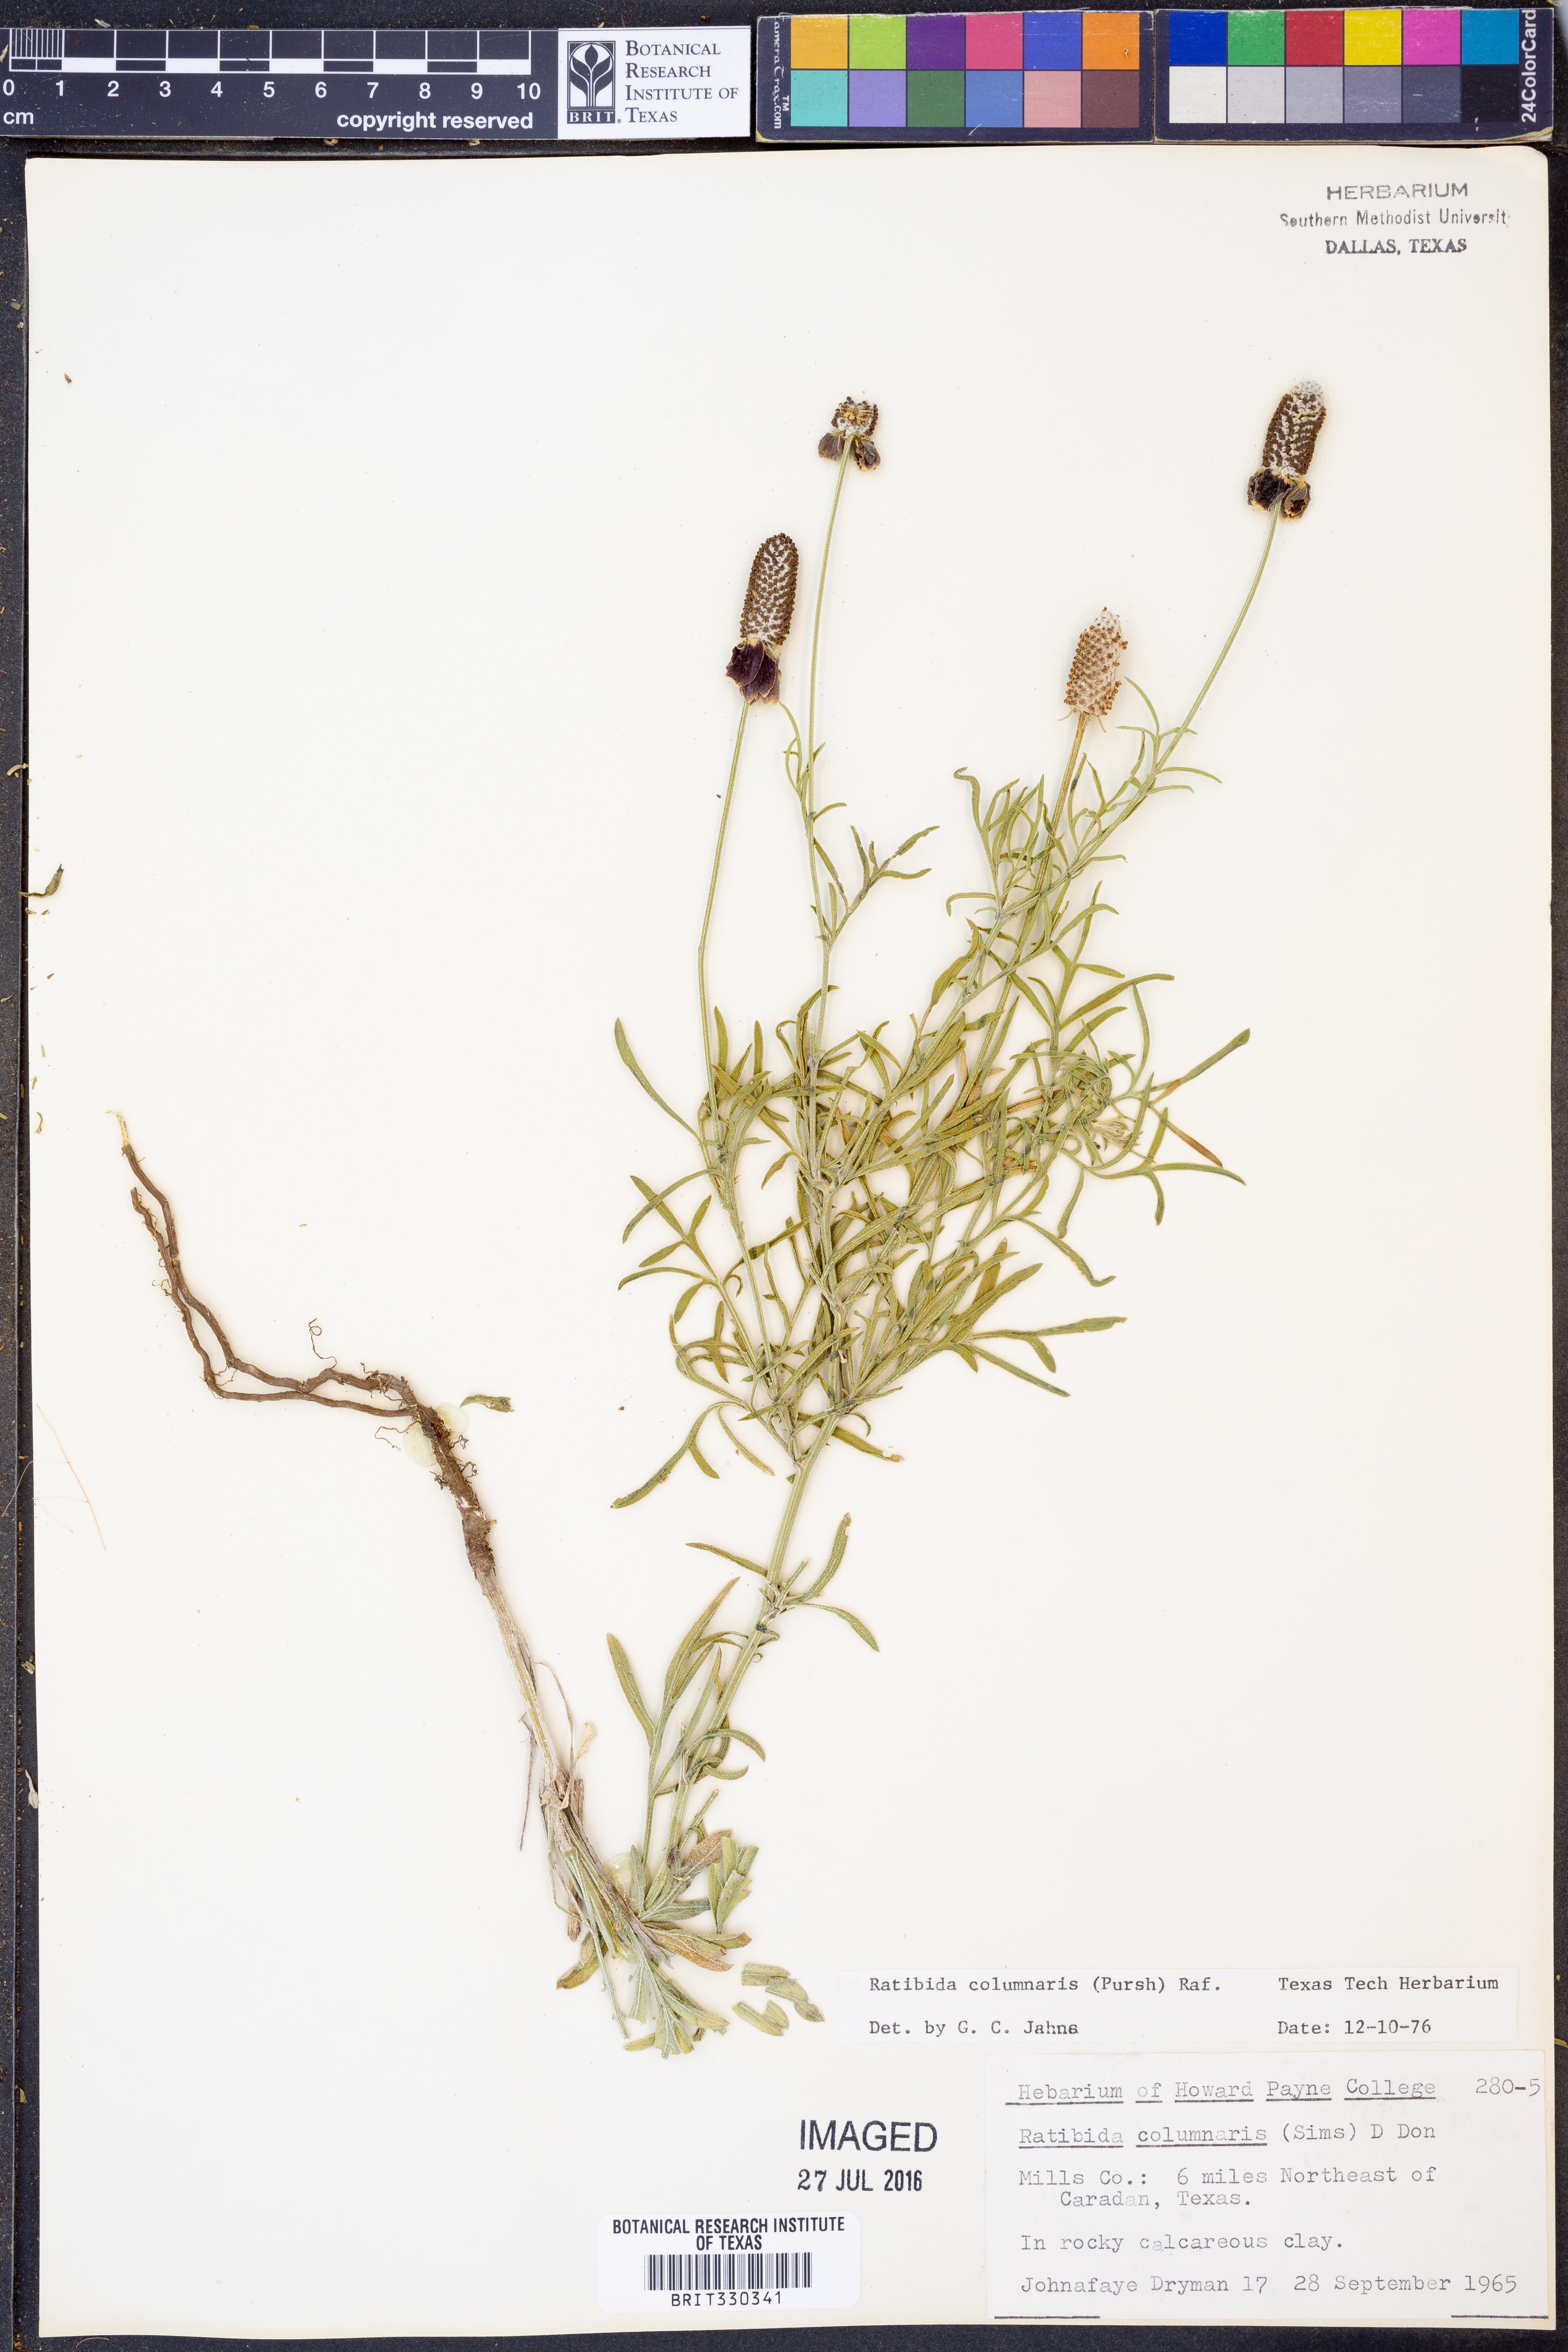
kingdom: Plantae
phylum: Tracheophyta
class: Magnoliopsida
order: Asterales
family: Asteraceae
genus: Ratibida
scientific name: Ratibida columnifera
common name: Prairie coneflower
